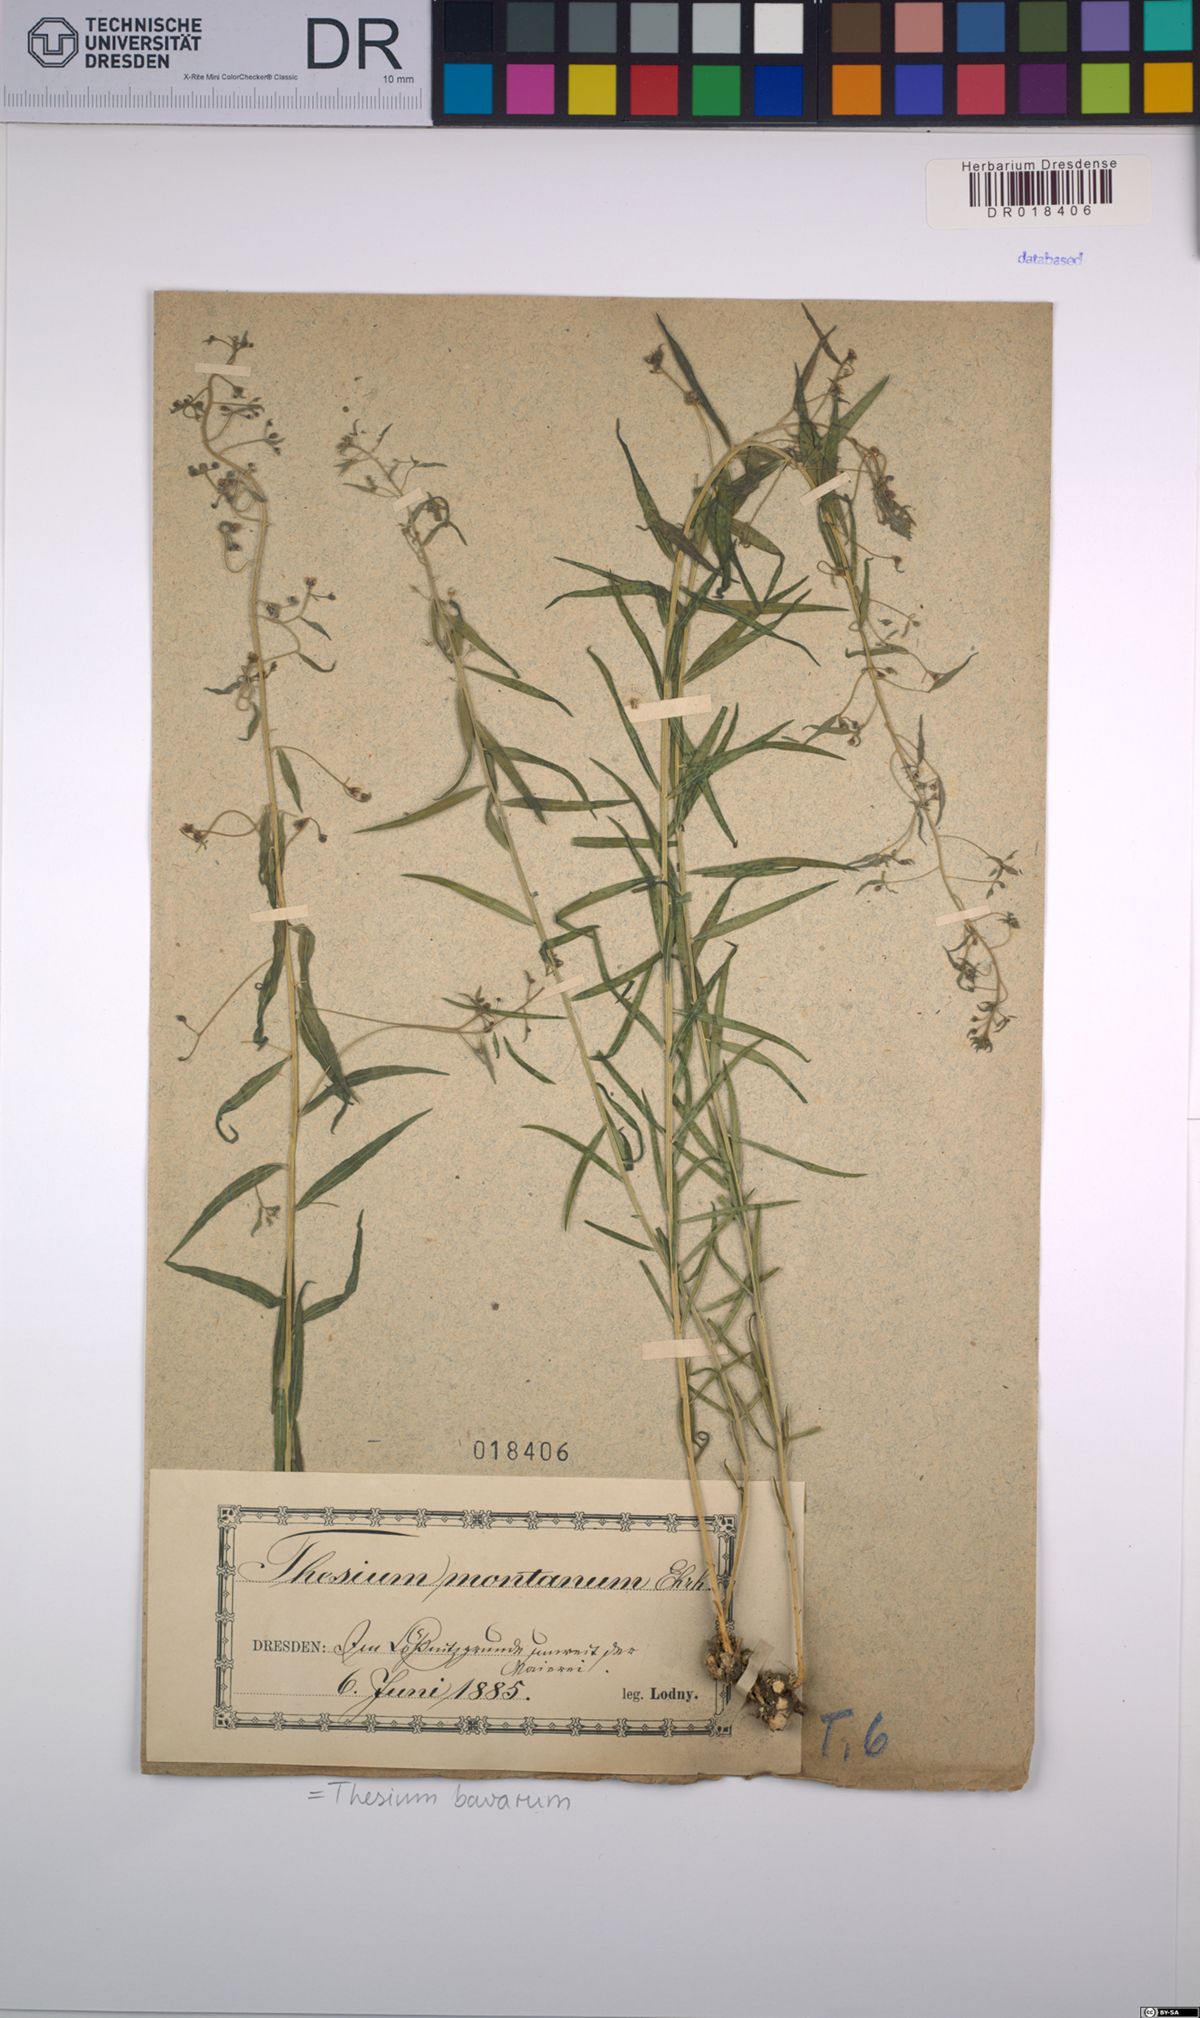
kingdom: Plantae
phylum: Tracheophyta
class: Magnoliopsida
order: Santalales
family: Thesiaceae
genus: Thesium
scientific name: Thesium bavarum
